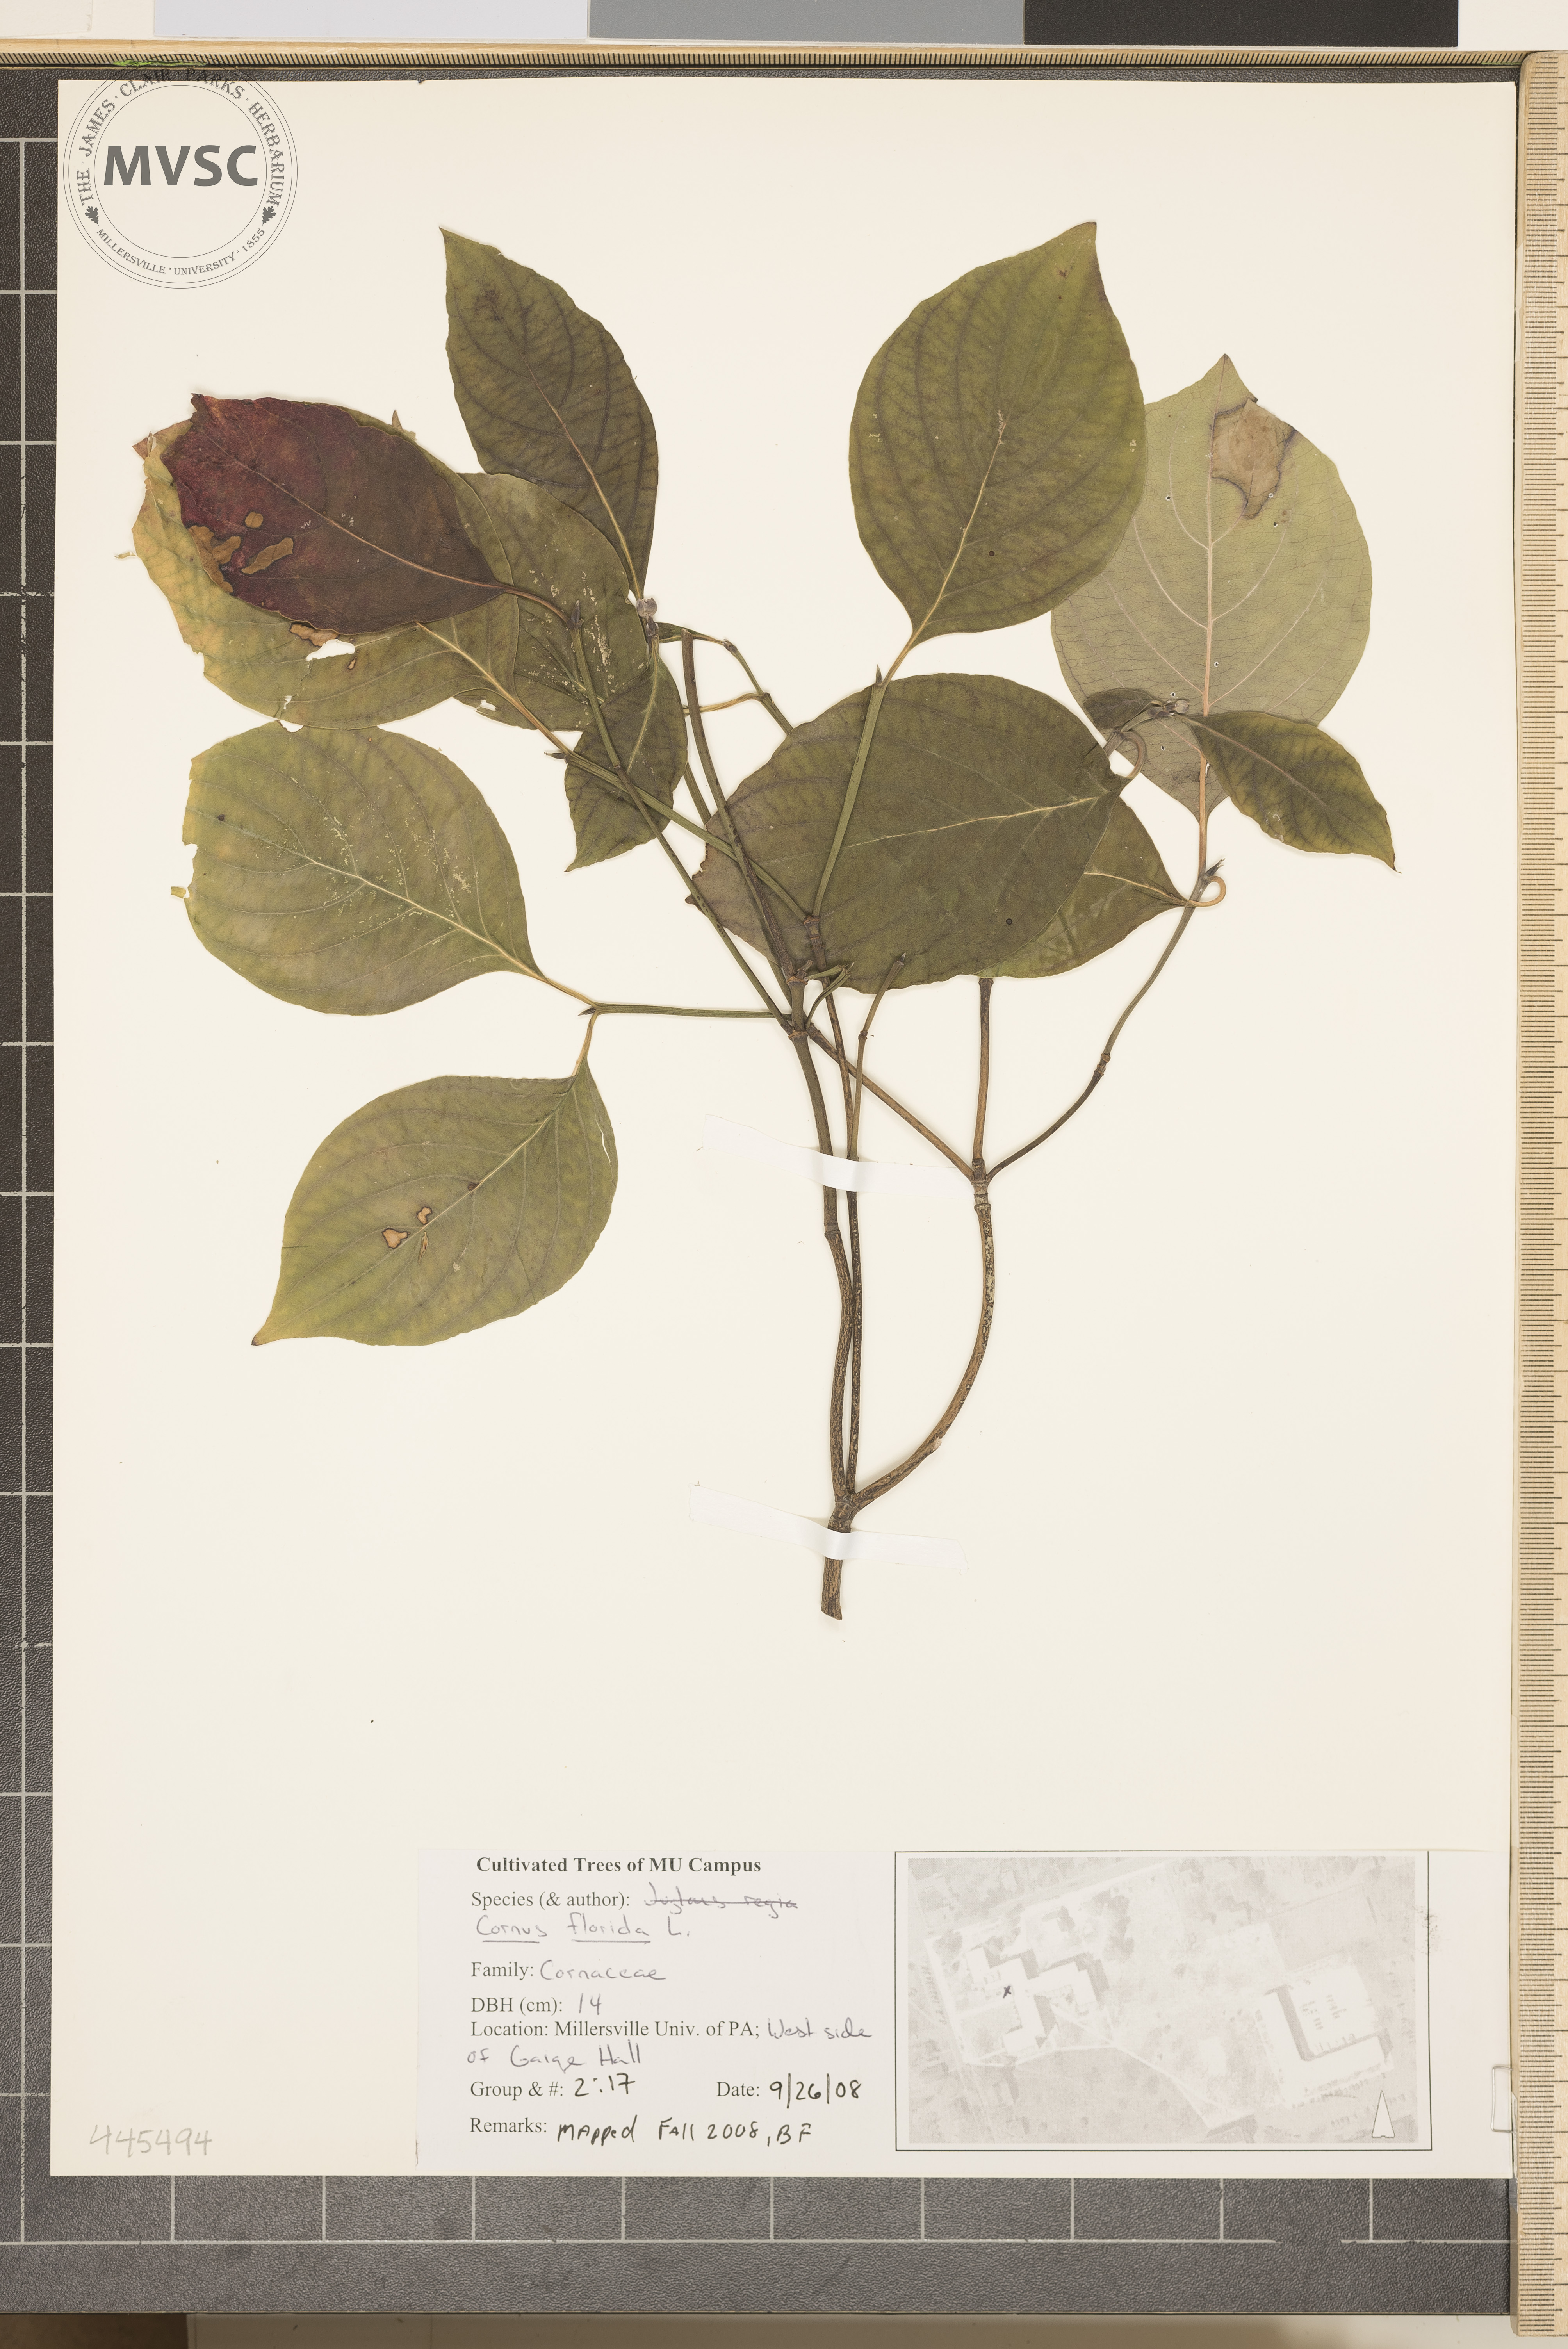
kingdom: Plantae
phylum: Tracheophyta
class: Magnoliopsida
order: Cornales
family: Cornaceae
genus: Cornus
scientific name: Cornus florida
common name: Flowering dogwood
